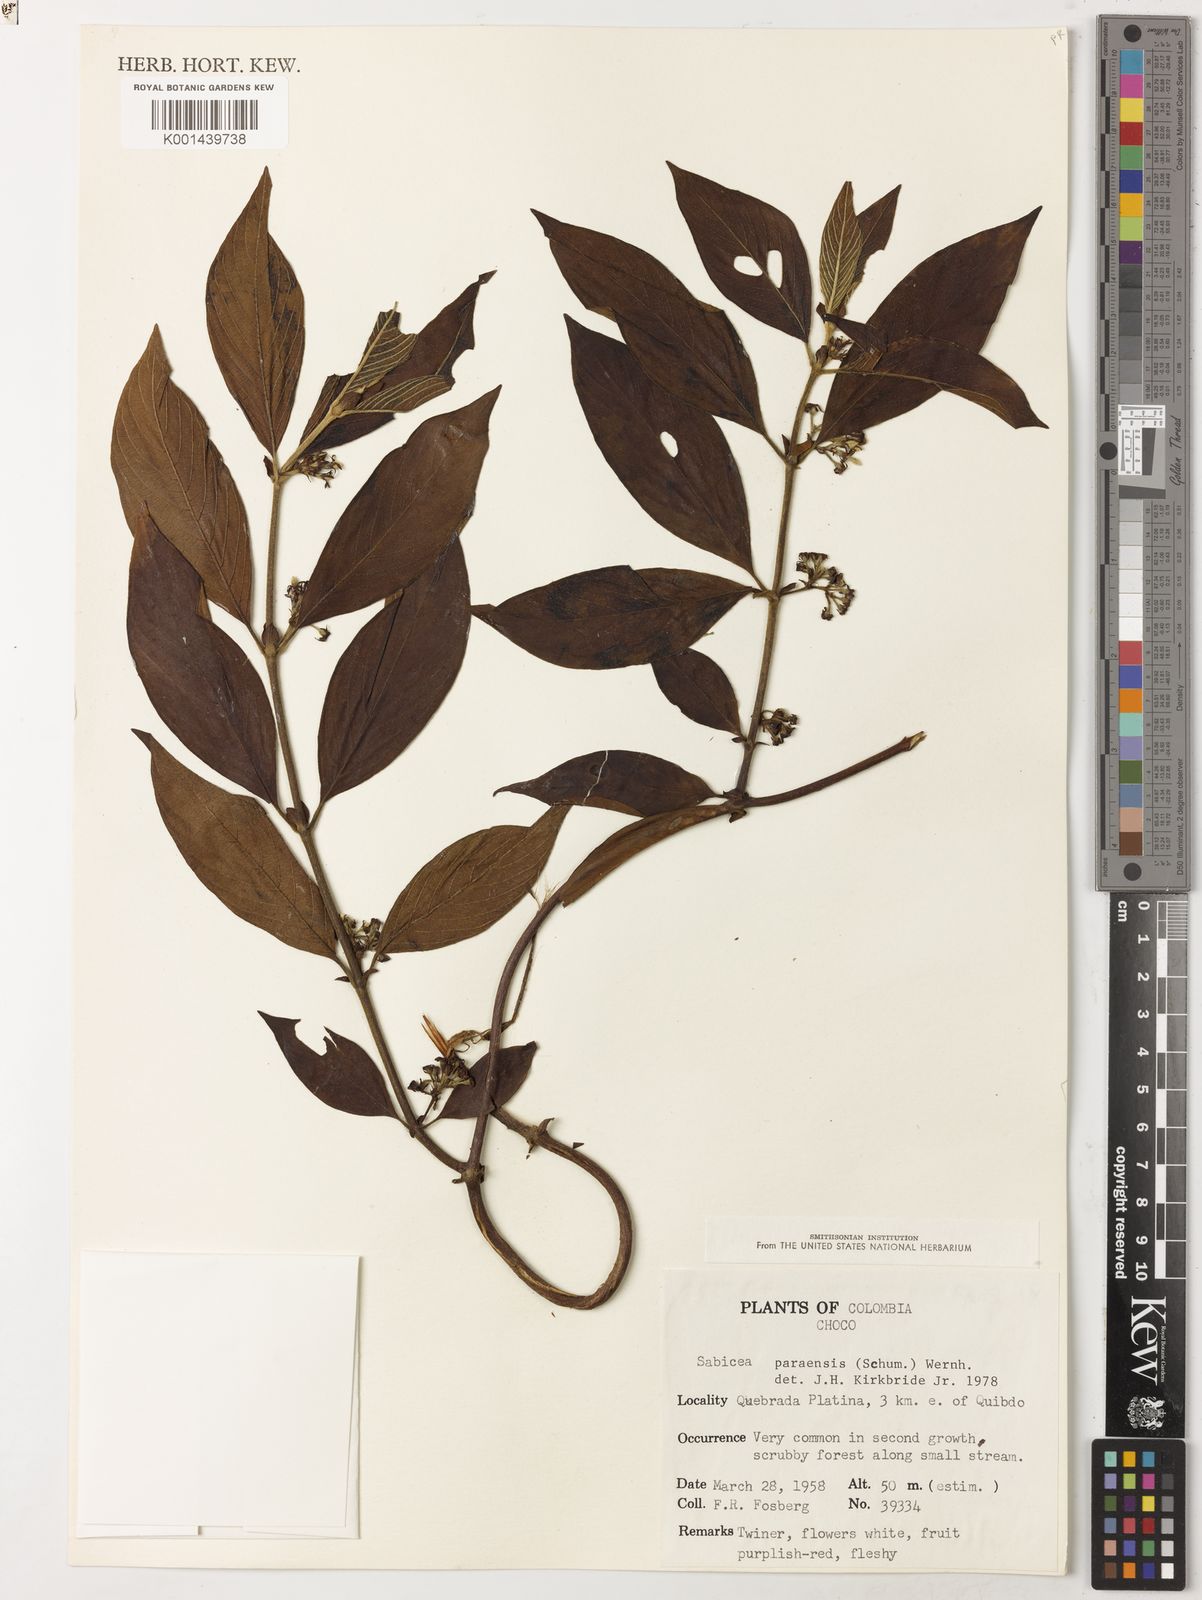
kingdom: Plantae
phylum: Tracheophyta
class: Magnoliopsida
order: Gentianales
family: Rubiaceae
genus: Sabicea
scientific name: Sabicea panamensis
